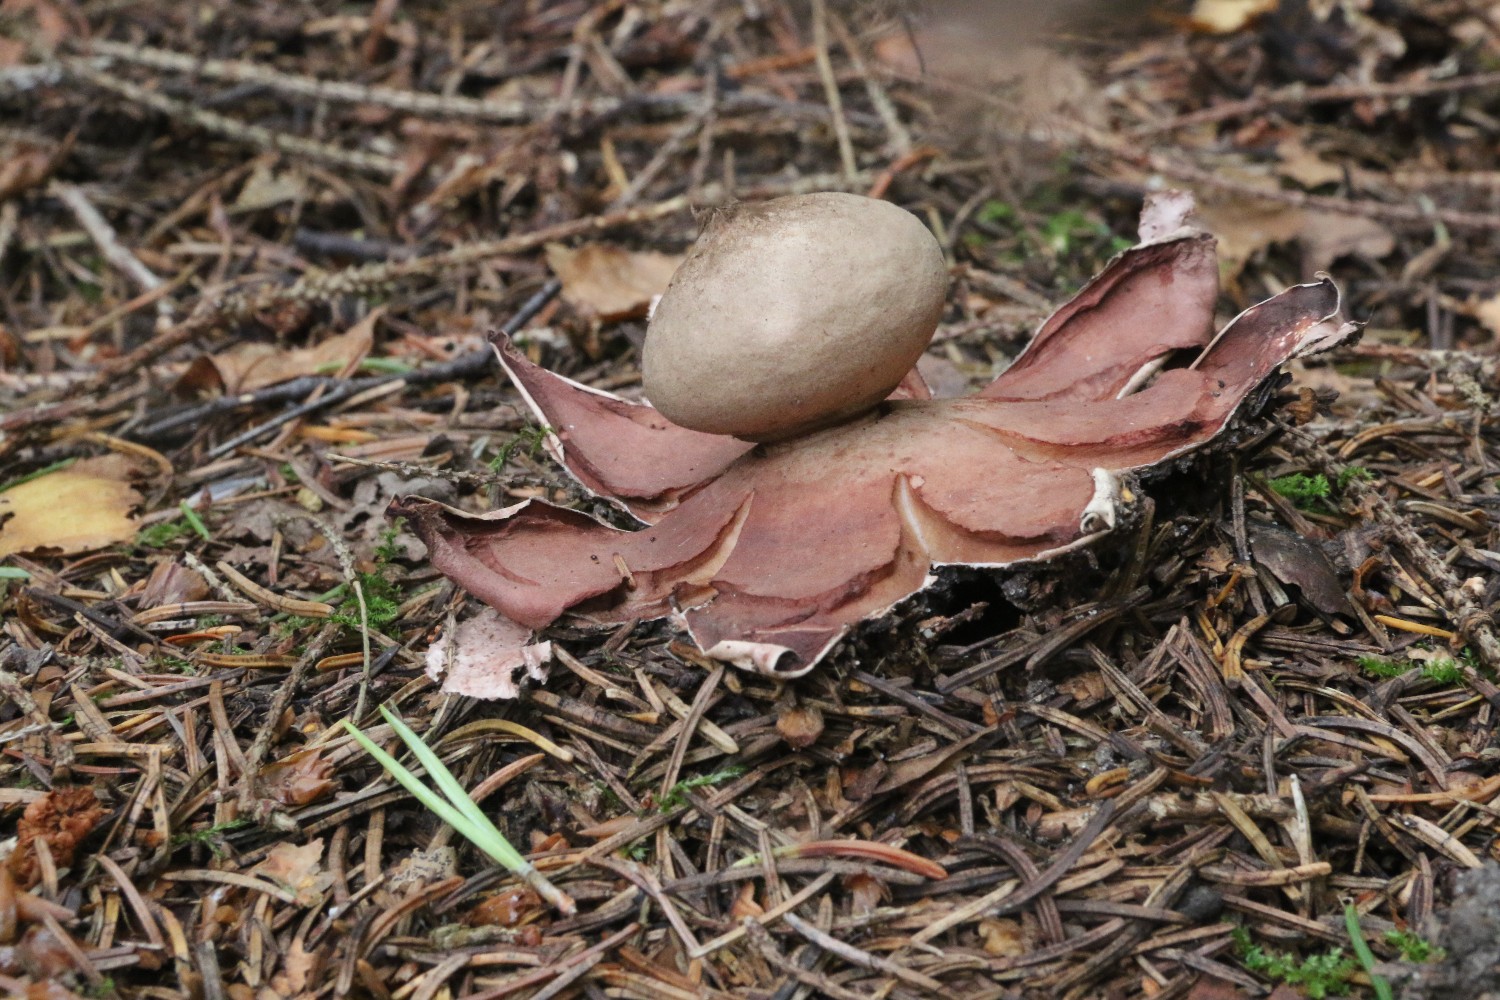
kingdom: Fungi
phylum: Basidiomycota
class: Agaricomycetes
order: Geastrales
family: Geastraceae
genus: Geastrum
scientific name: Geastrum rufescens
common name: kødfarvet stjernebold
